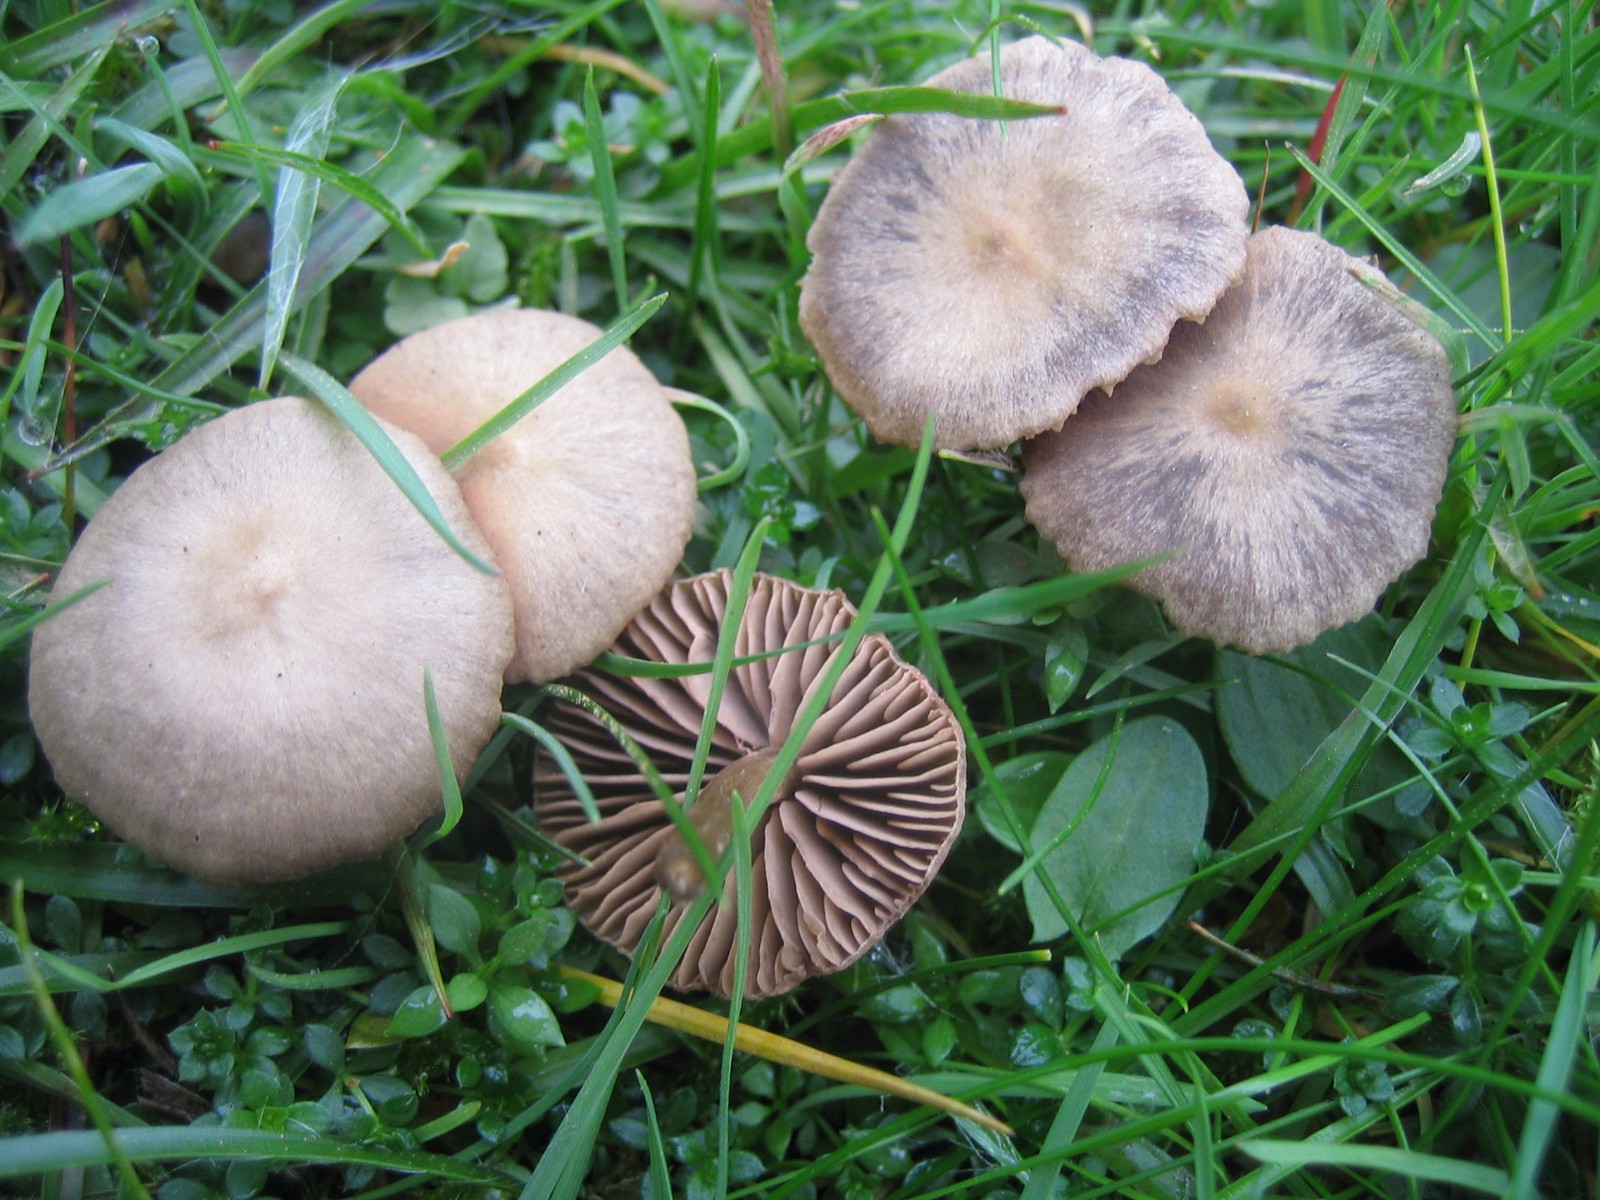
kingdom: Fungi
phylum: Basidiomycota
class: Agaricomycetes
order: Agaricales
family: Entolomataceae
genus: Entoloma
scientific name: Entoloma
